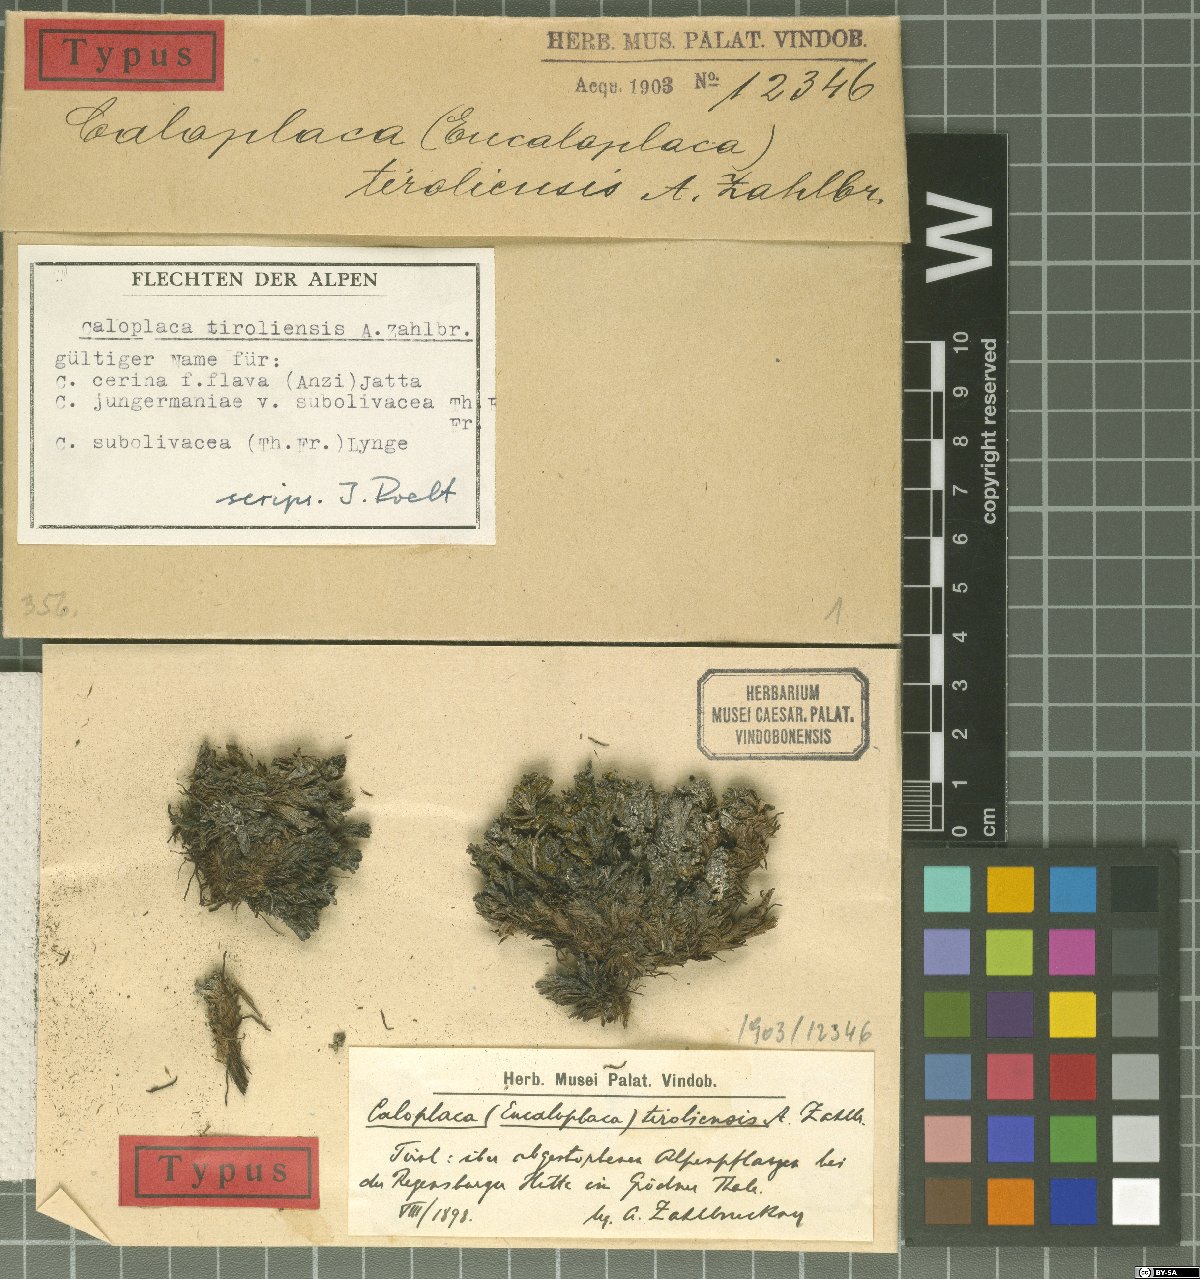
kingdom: Fungi
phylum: Ascomycota
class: Lecanoromycetes
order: Teloschistales
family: Teloschistaceae
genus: Parvoplaca
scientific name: Parvoplaca tiroliensis
